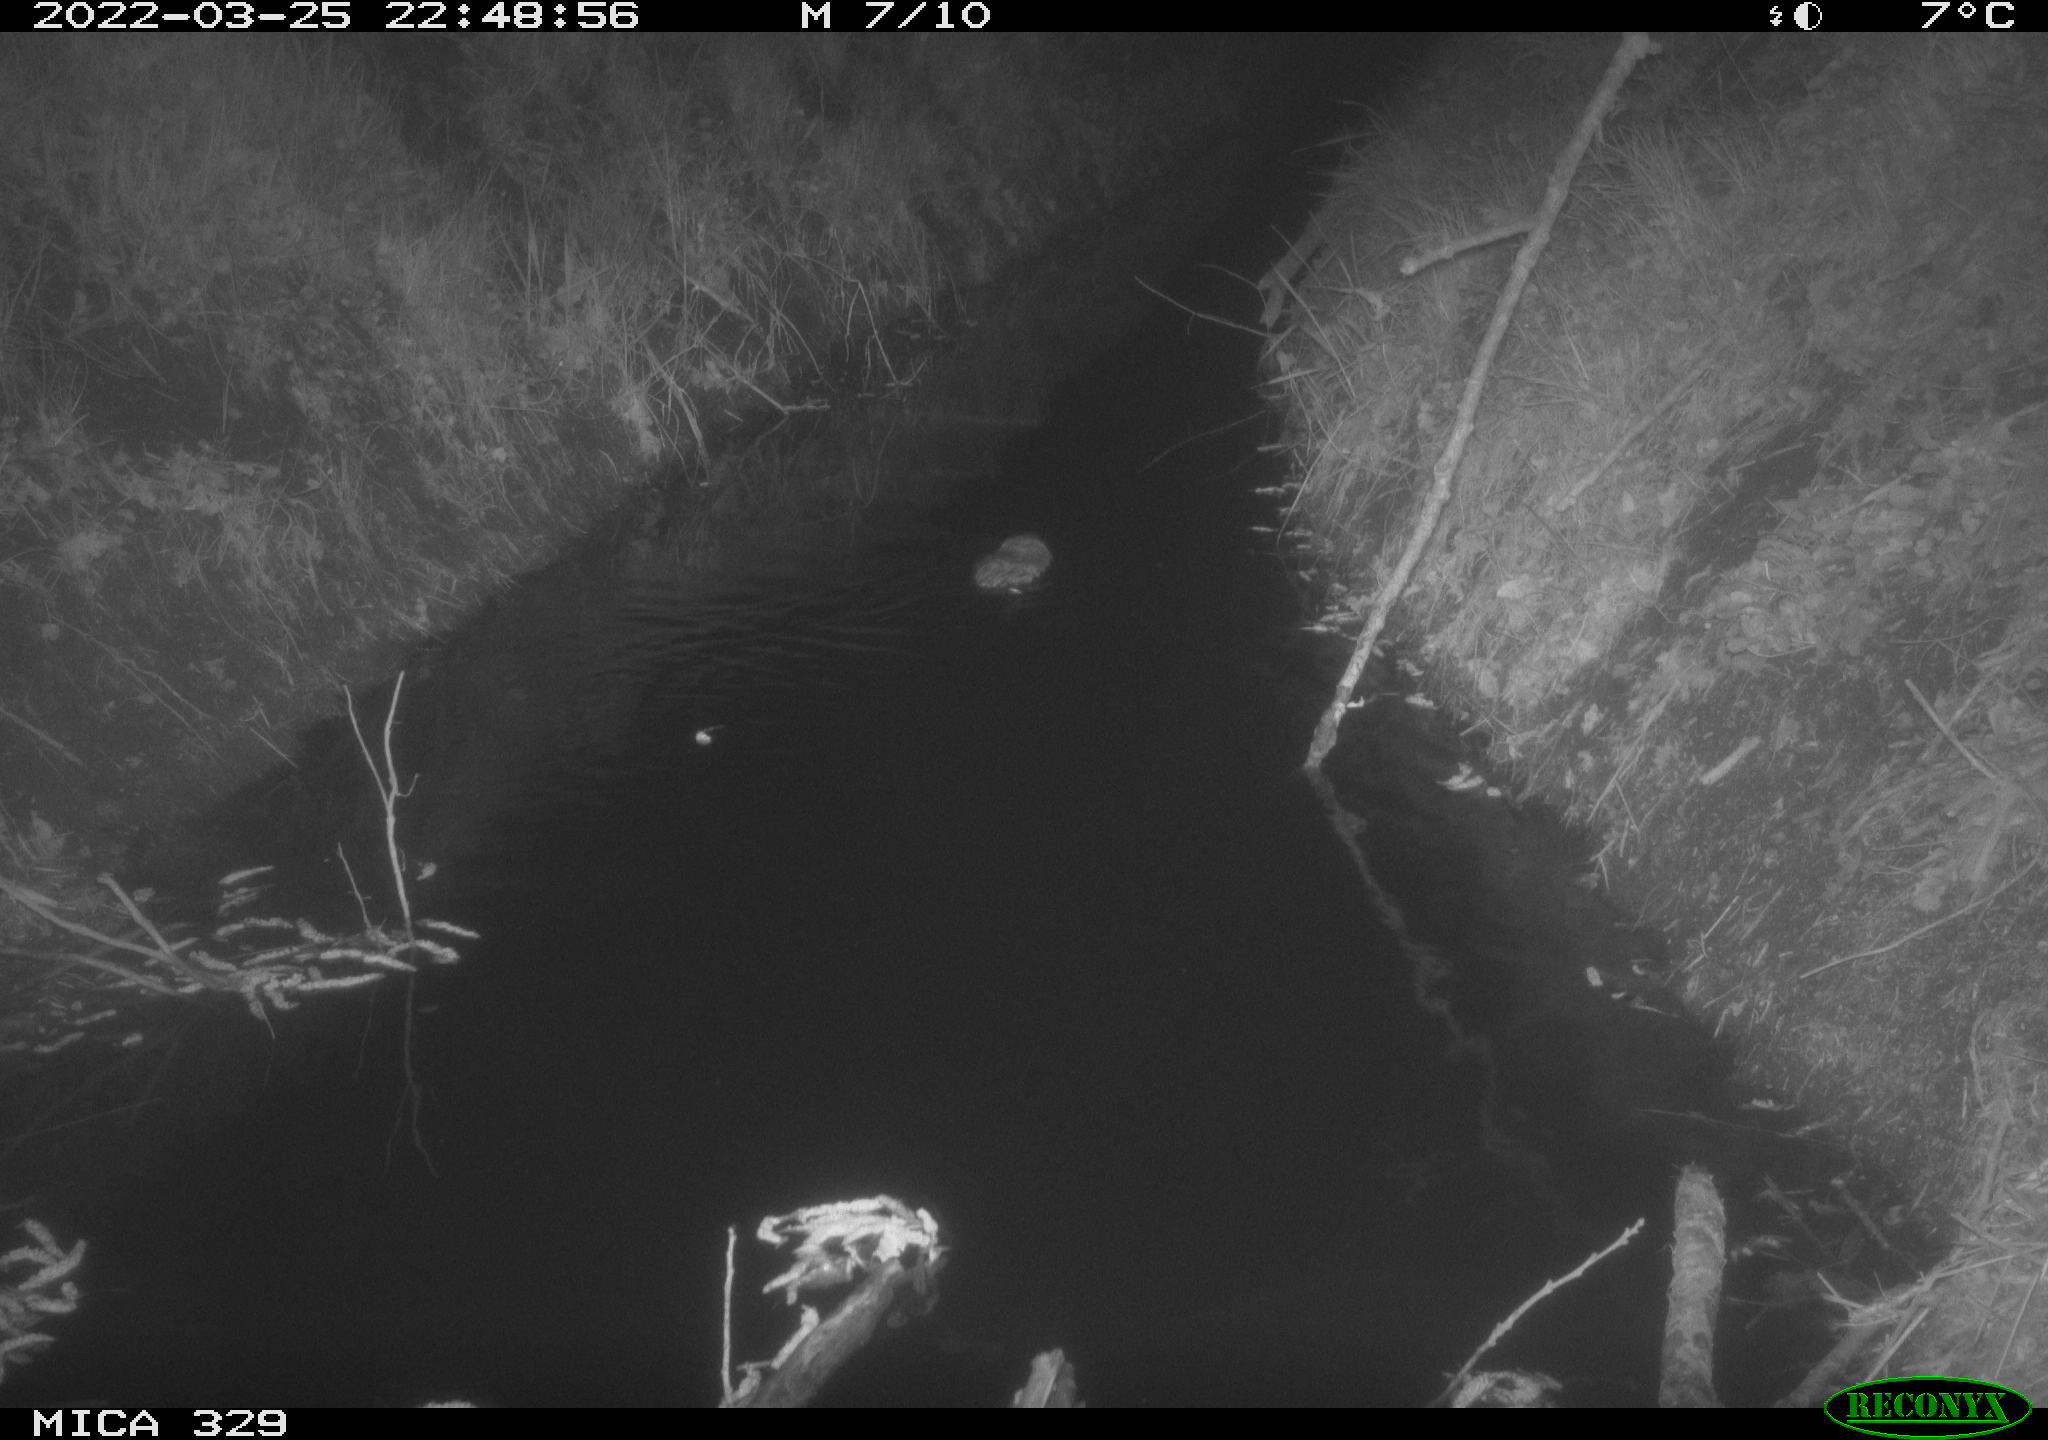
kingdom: Animalia
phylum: Chordata
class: Mammalia
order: Rodentia
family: Cricetidae
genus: Ondatra
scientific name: Ondatra zibethicus
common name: Muskrat
